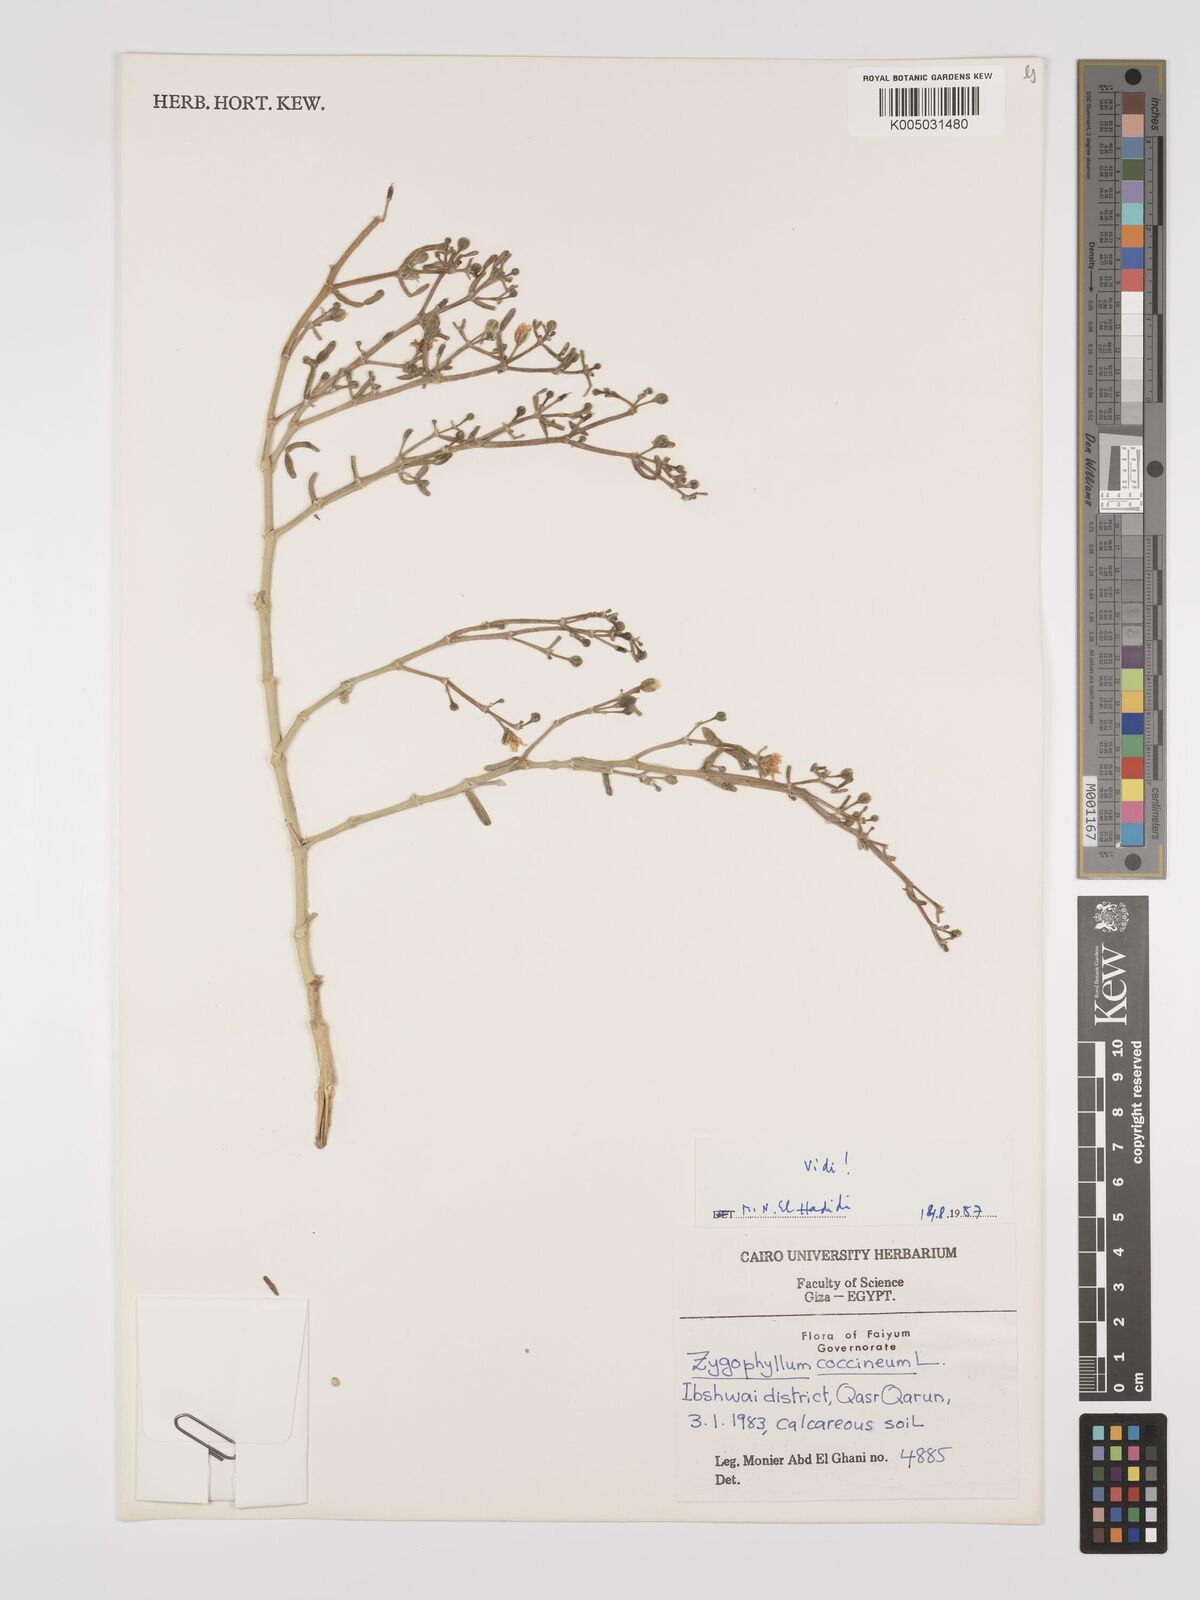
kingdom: Plantae
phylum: Tracheophyta
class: Magnoliopsida
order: Zygophyllales
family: Zygophyllaceae
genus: Tetraena
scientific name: Tetraena coccinea
